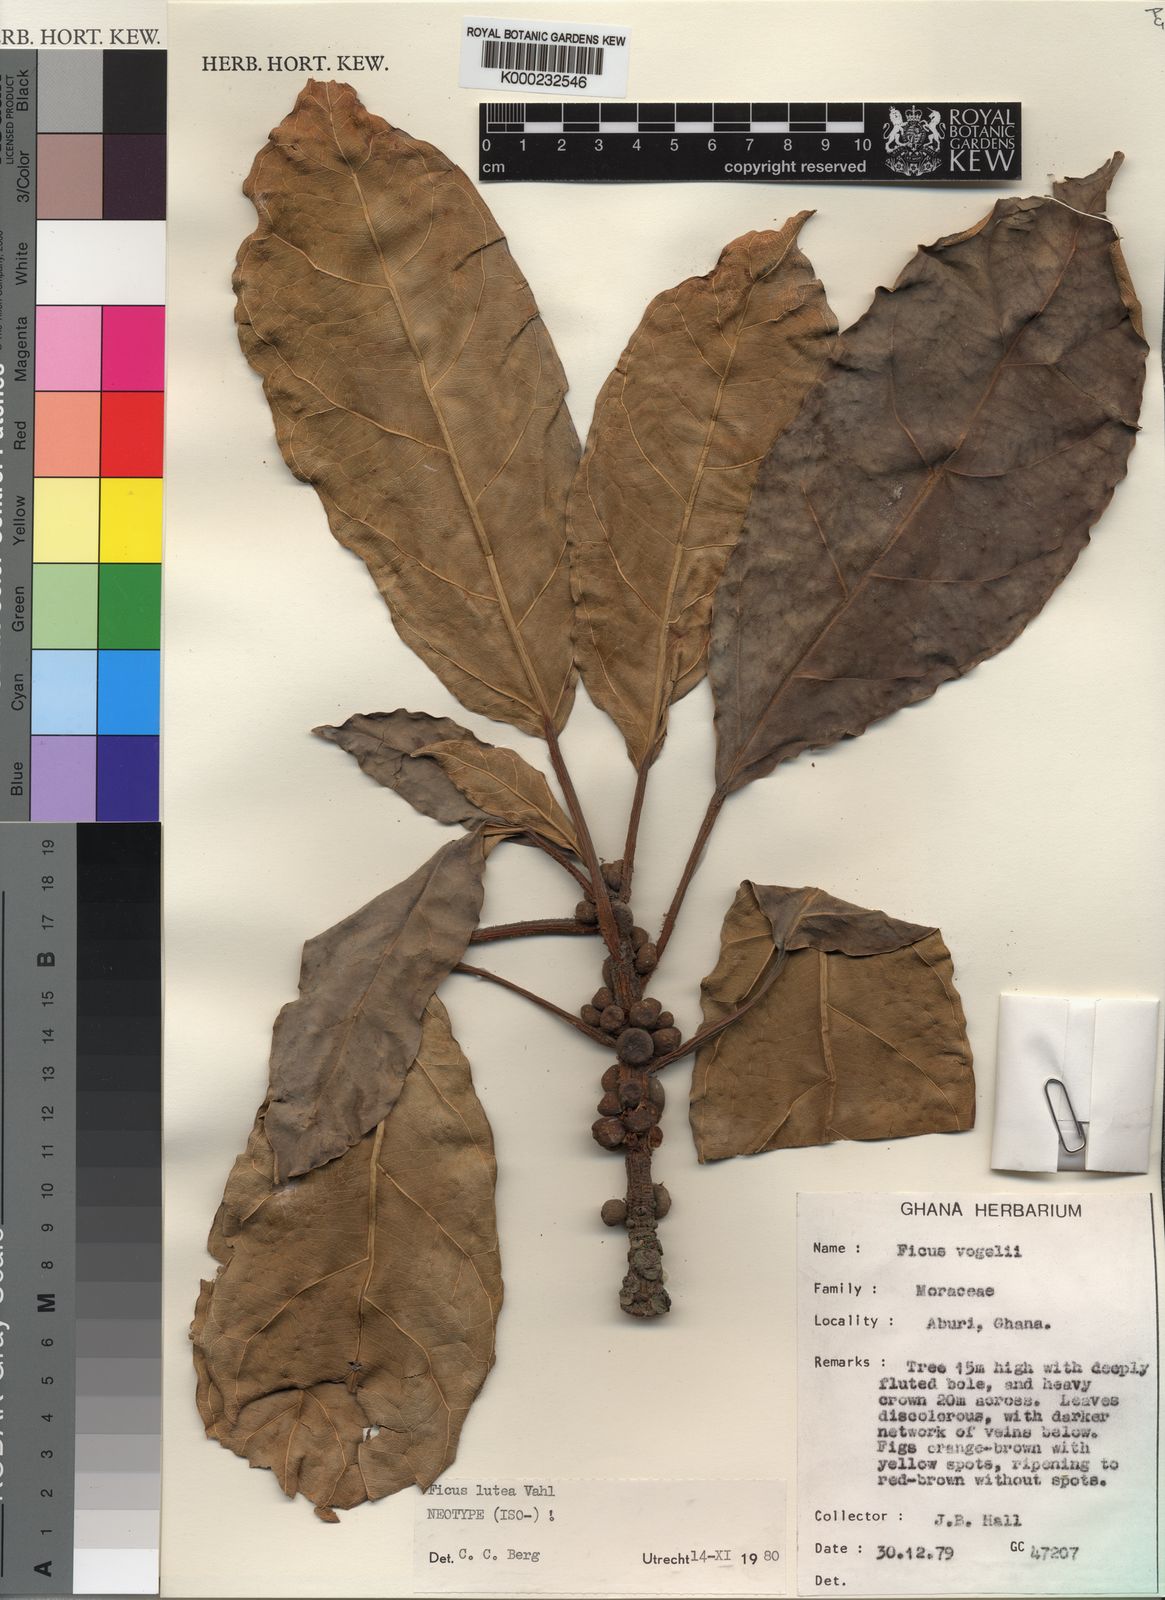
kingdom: Plantae
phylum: Tracheophyta
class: Magnoliopsida
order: Rosales
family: Moraceae
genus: Ficus
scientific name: Ficus lutea
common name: Giant-leaved fig
